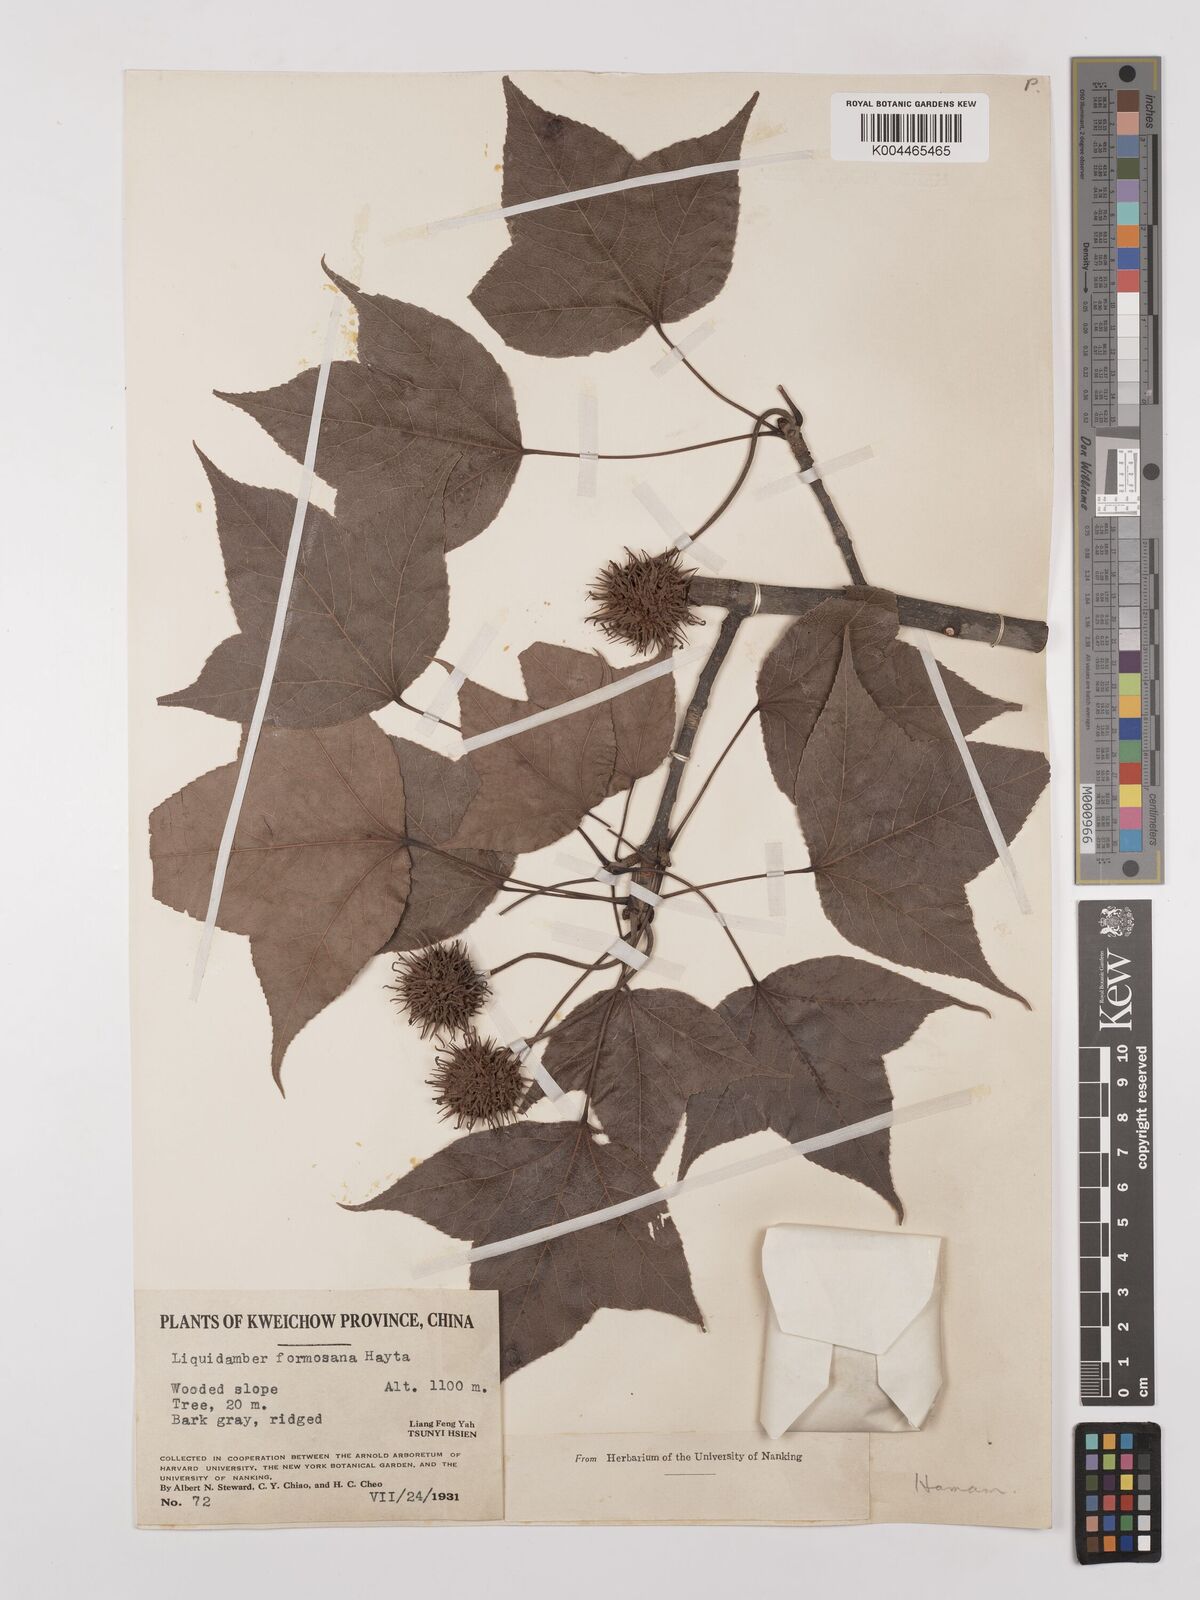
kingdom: Plantae
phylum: Tracheophyta
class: Magnoliopsida
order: Saxifragales
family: Altingiaceae
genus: Liquidambar
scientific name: Liquidambar formosana
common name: Chinese sweet gum
